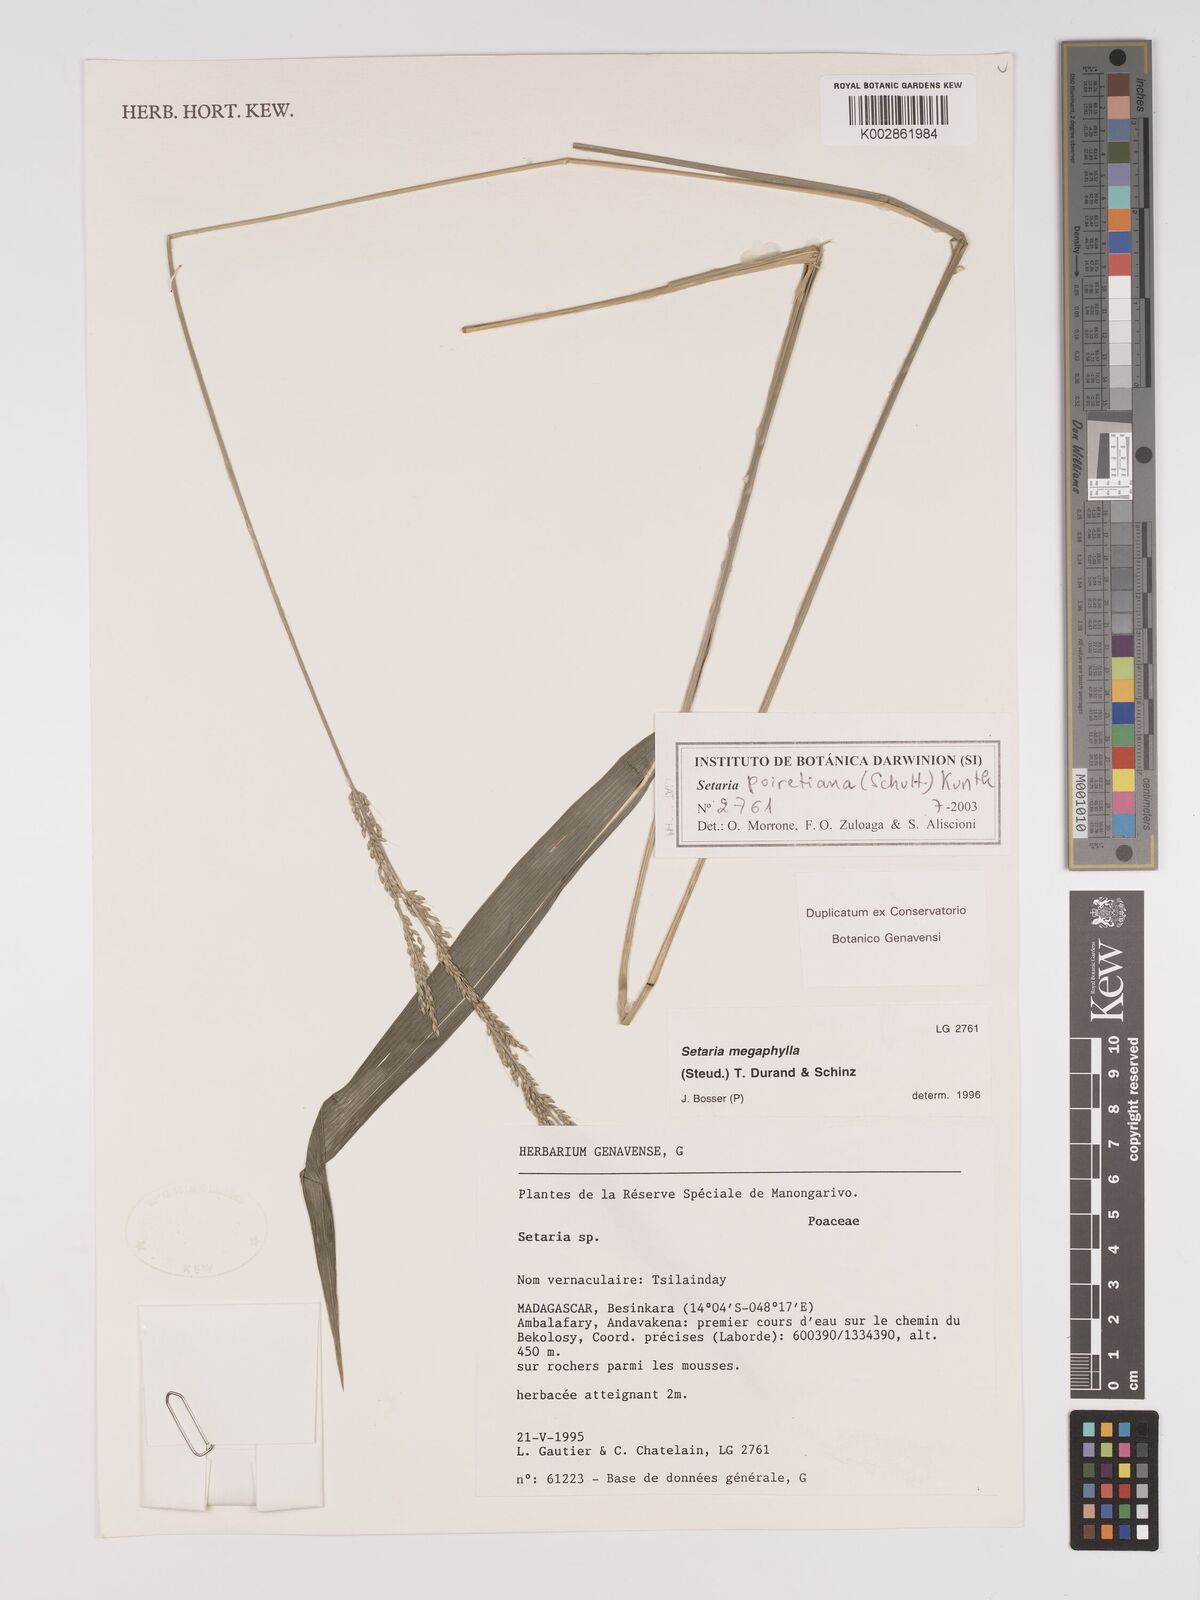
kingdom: Plantae
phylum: Tracheophyta
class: Liliopsida
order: Poales
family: Poaceae
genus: Setaria
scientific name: Setaria poiretiana
